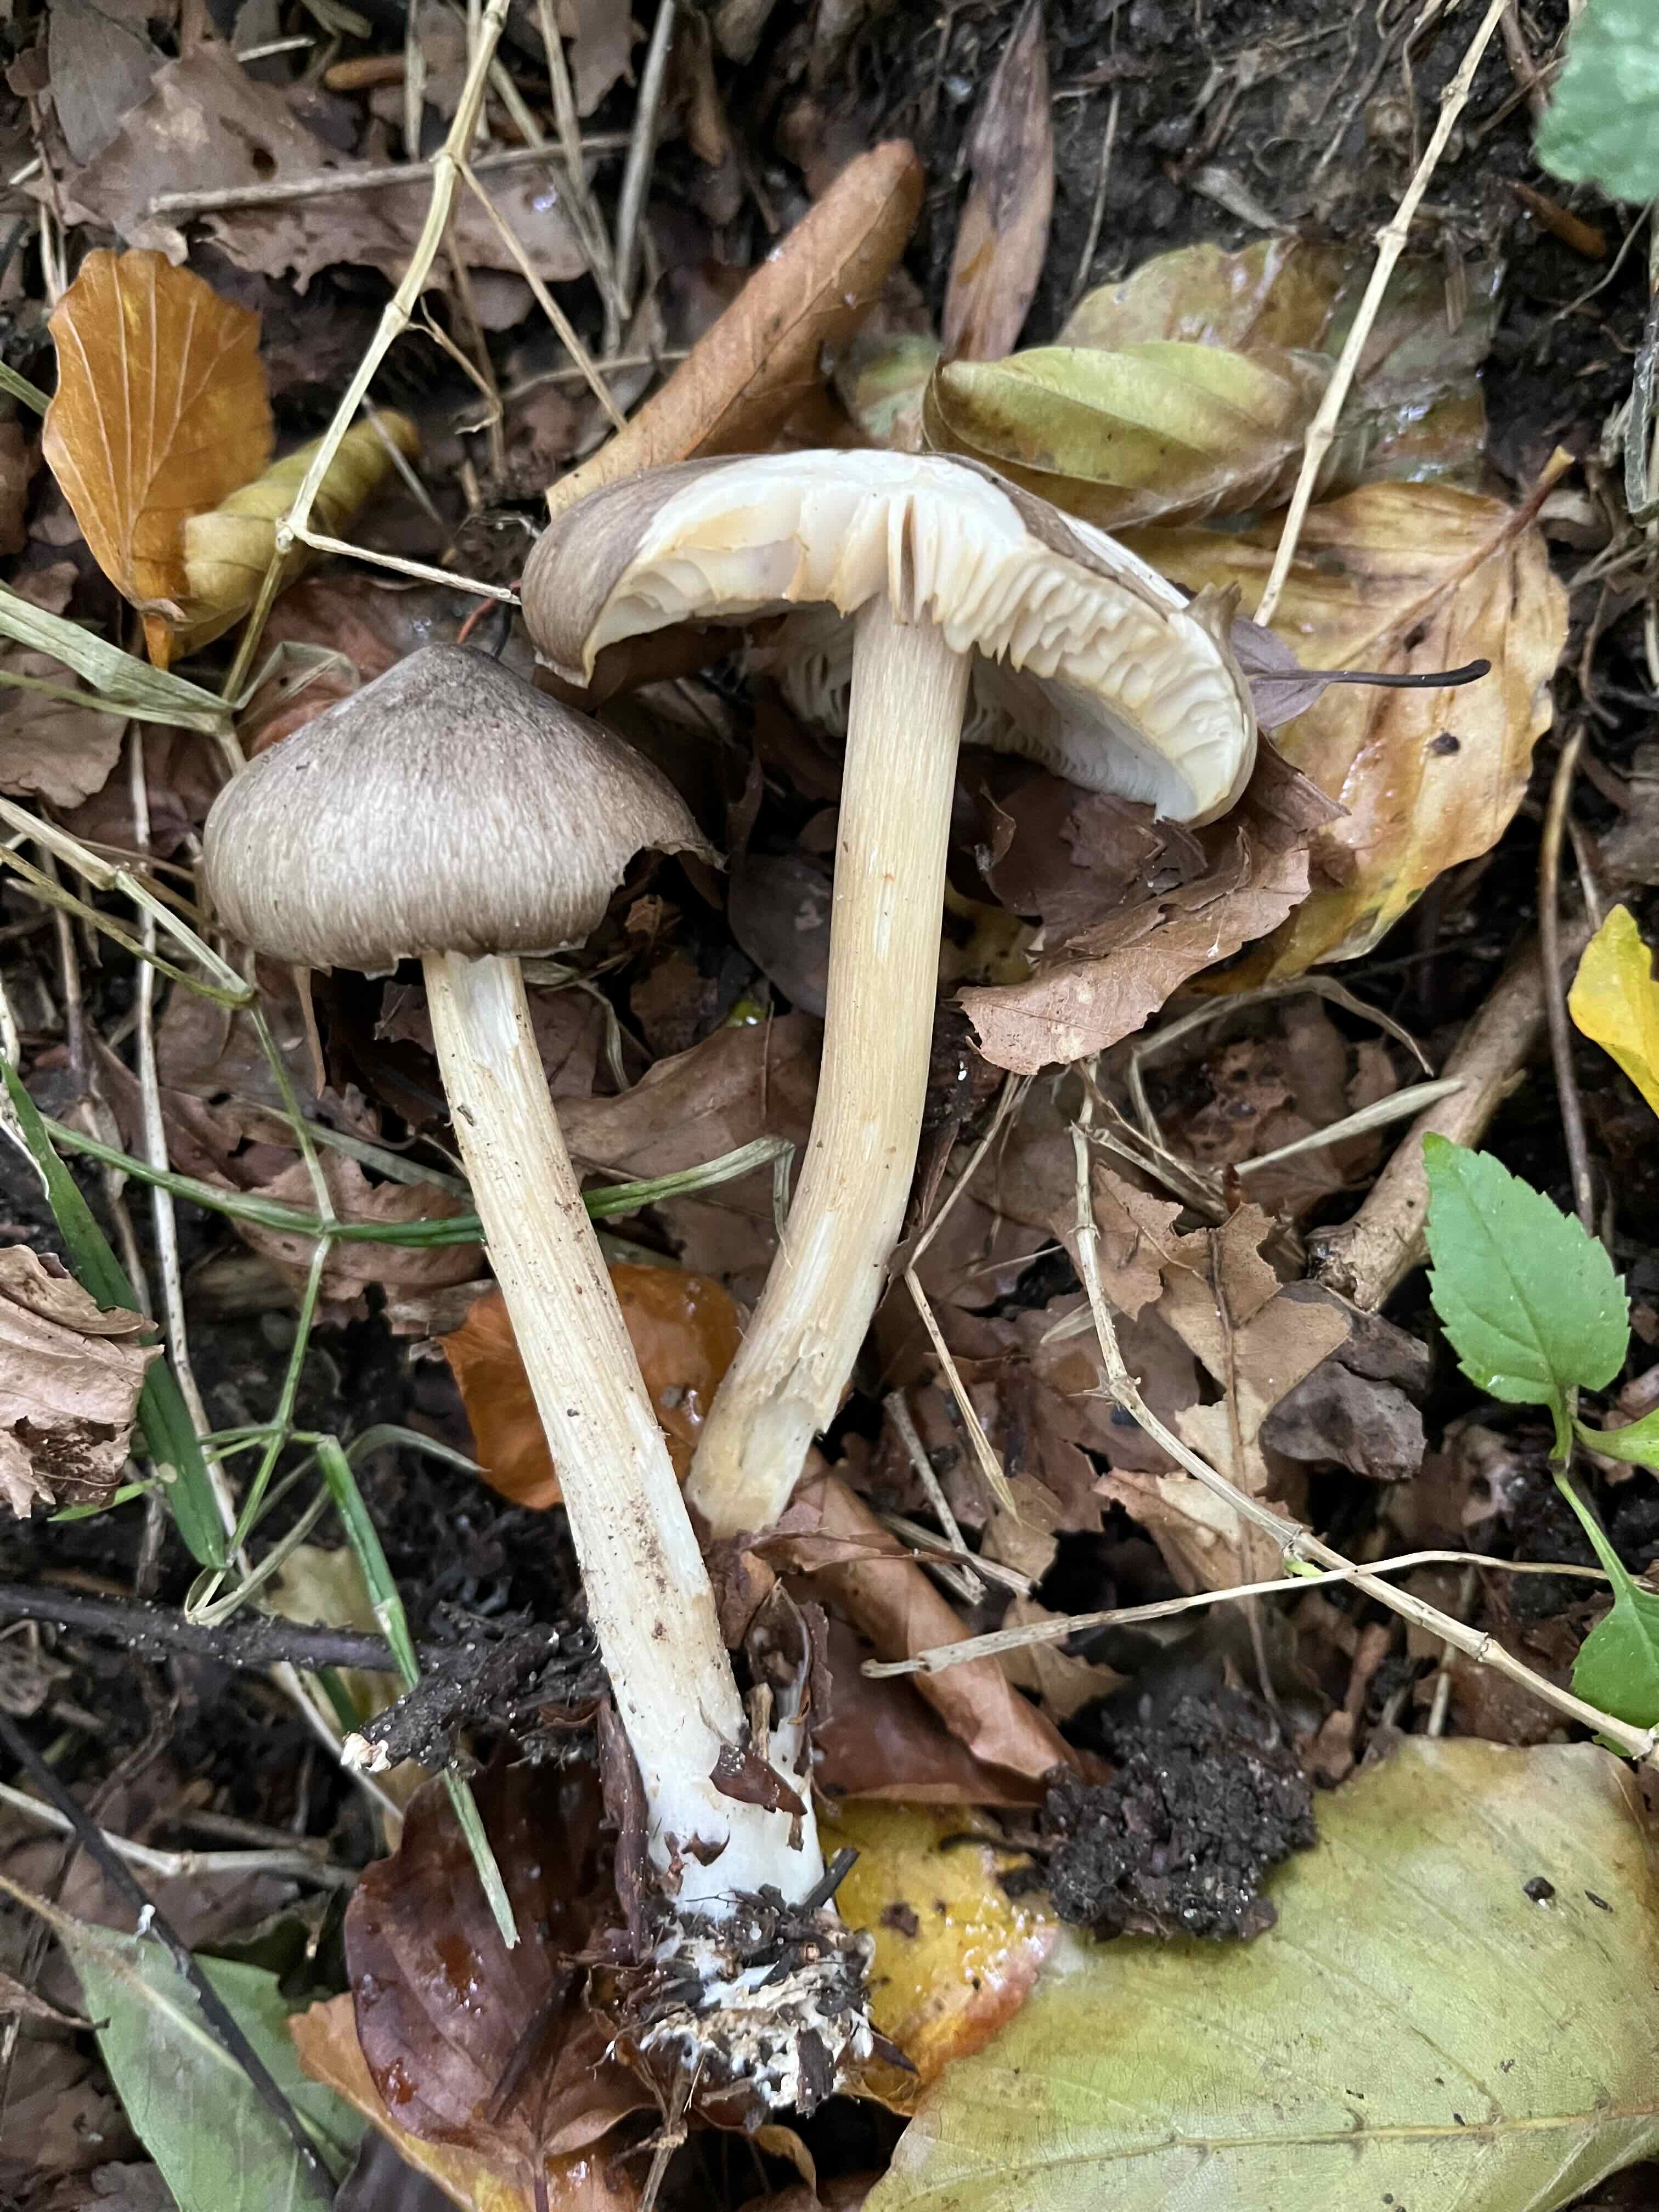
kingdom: Fungi
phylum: Basidiomycota
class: Agaricomycetes
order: Agaricales
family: Tricholomataceae
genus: Megacollybia
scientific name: Megacollybia platyphylla
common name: bredbladet væbnerhat
